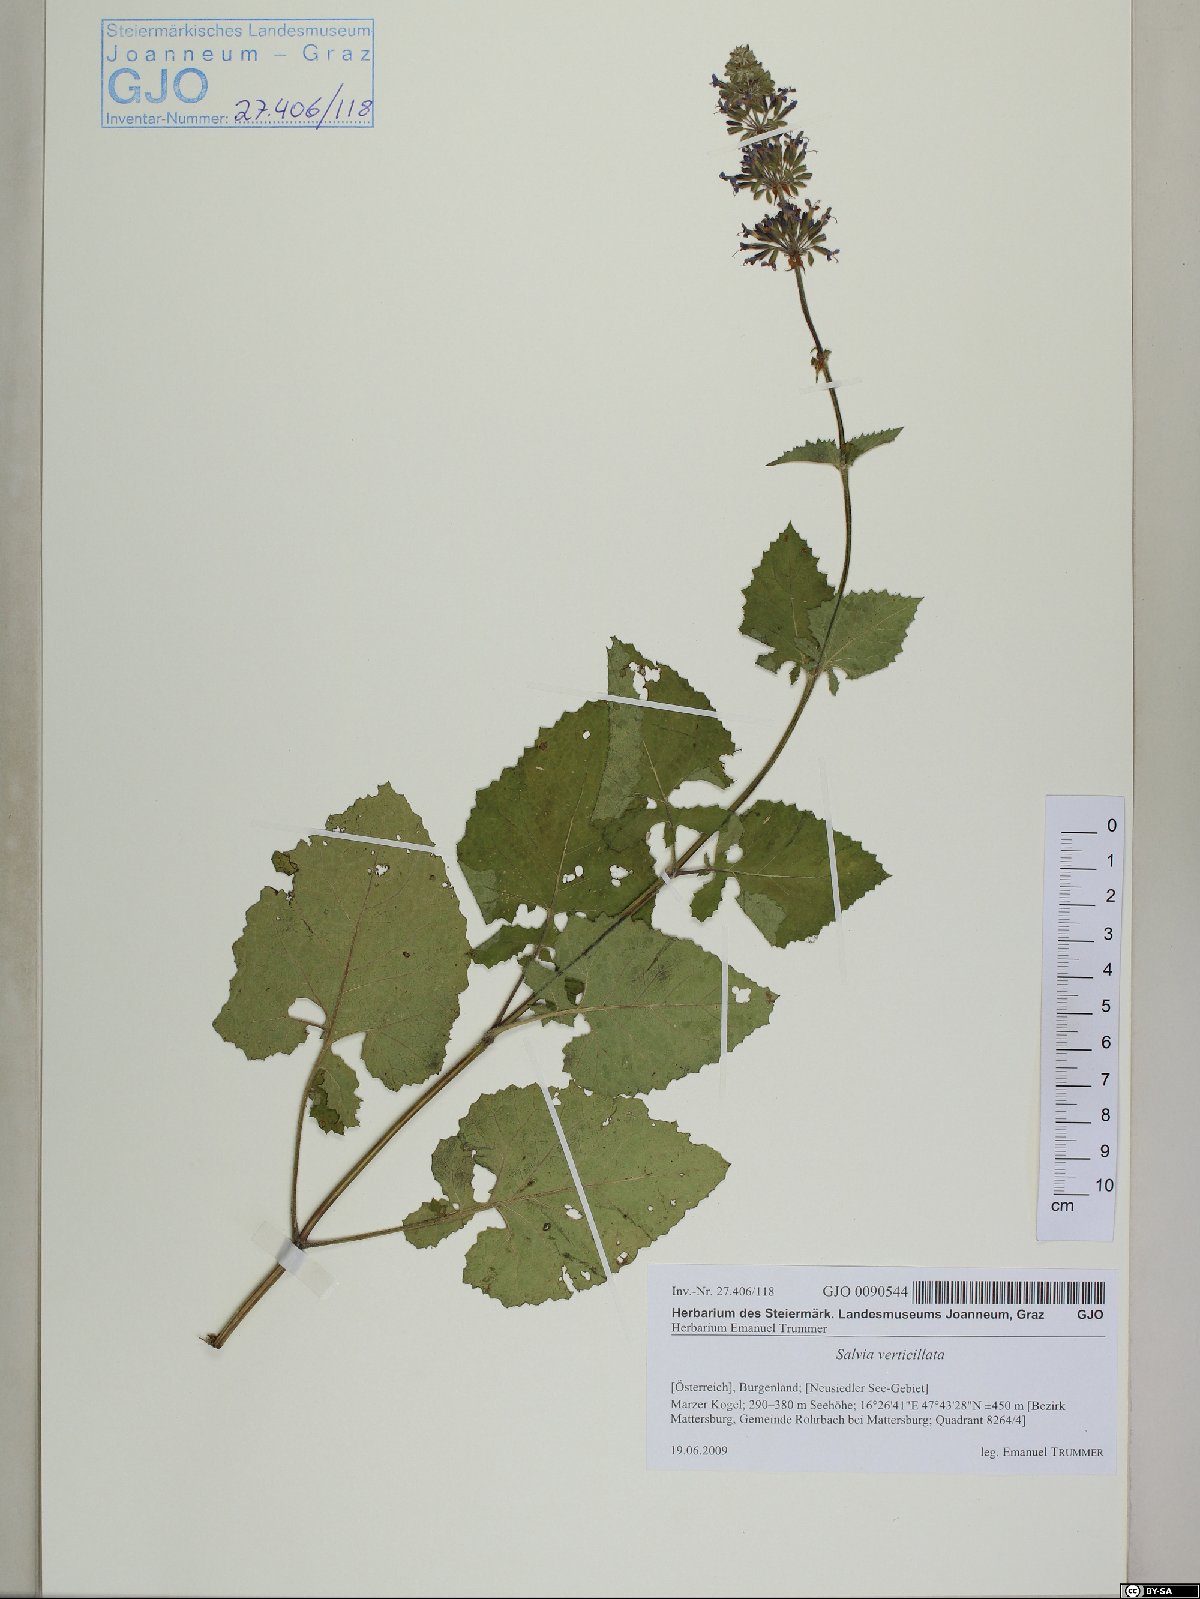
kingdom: Plantae
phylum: Tracheophyta
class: Magnoliopsida
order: Lamiales
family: Lamiaceae
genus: Salvia
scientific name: Salvia verticillata
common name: Whorled clary
